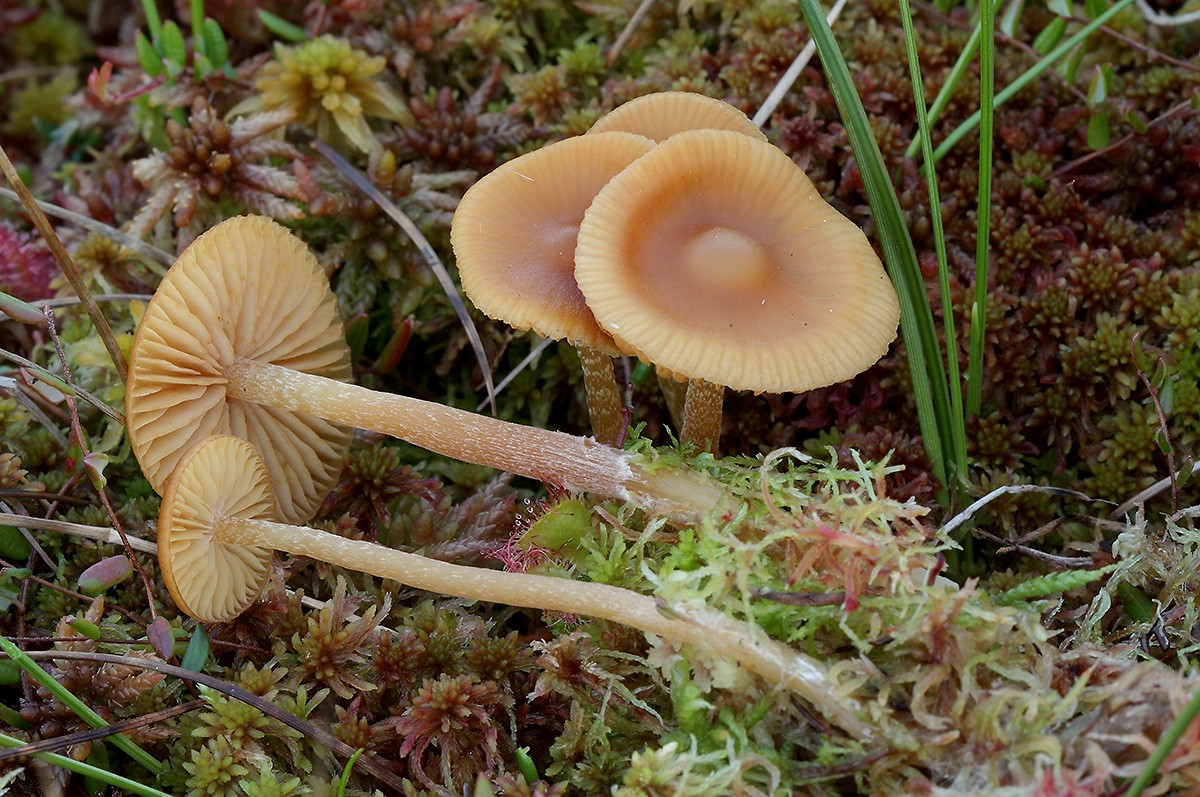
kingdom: Fungi
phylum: Basidiomycota
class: Agaricomycetes
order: Agaricales
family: Hymenogastraceae
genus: Galerina
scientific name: Galerina hybrida
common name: hængesæk-hjelmhat
